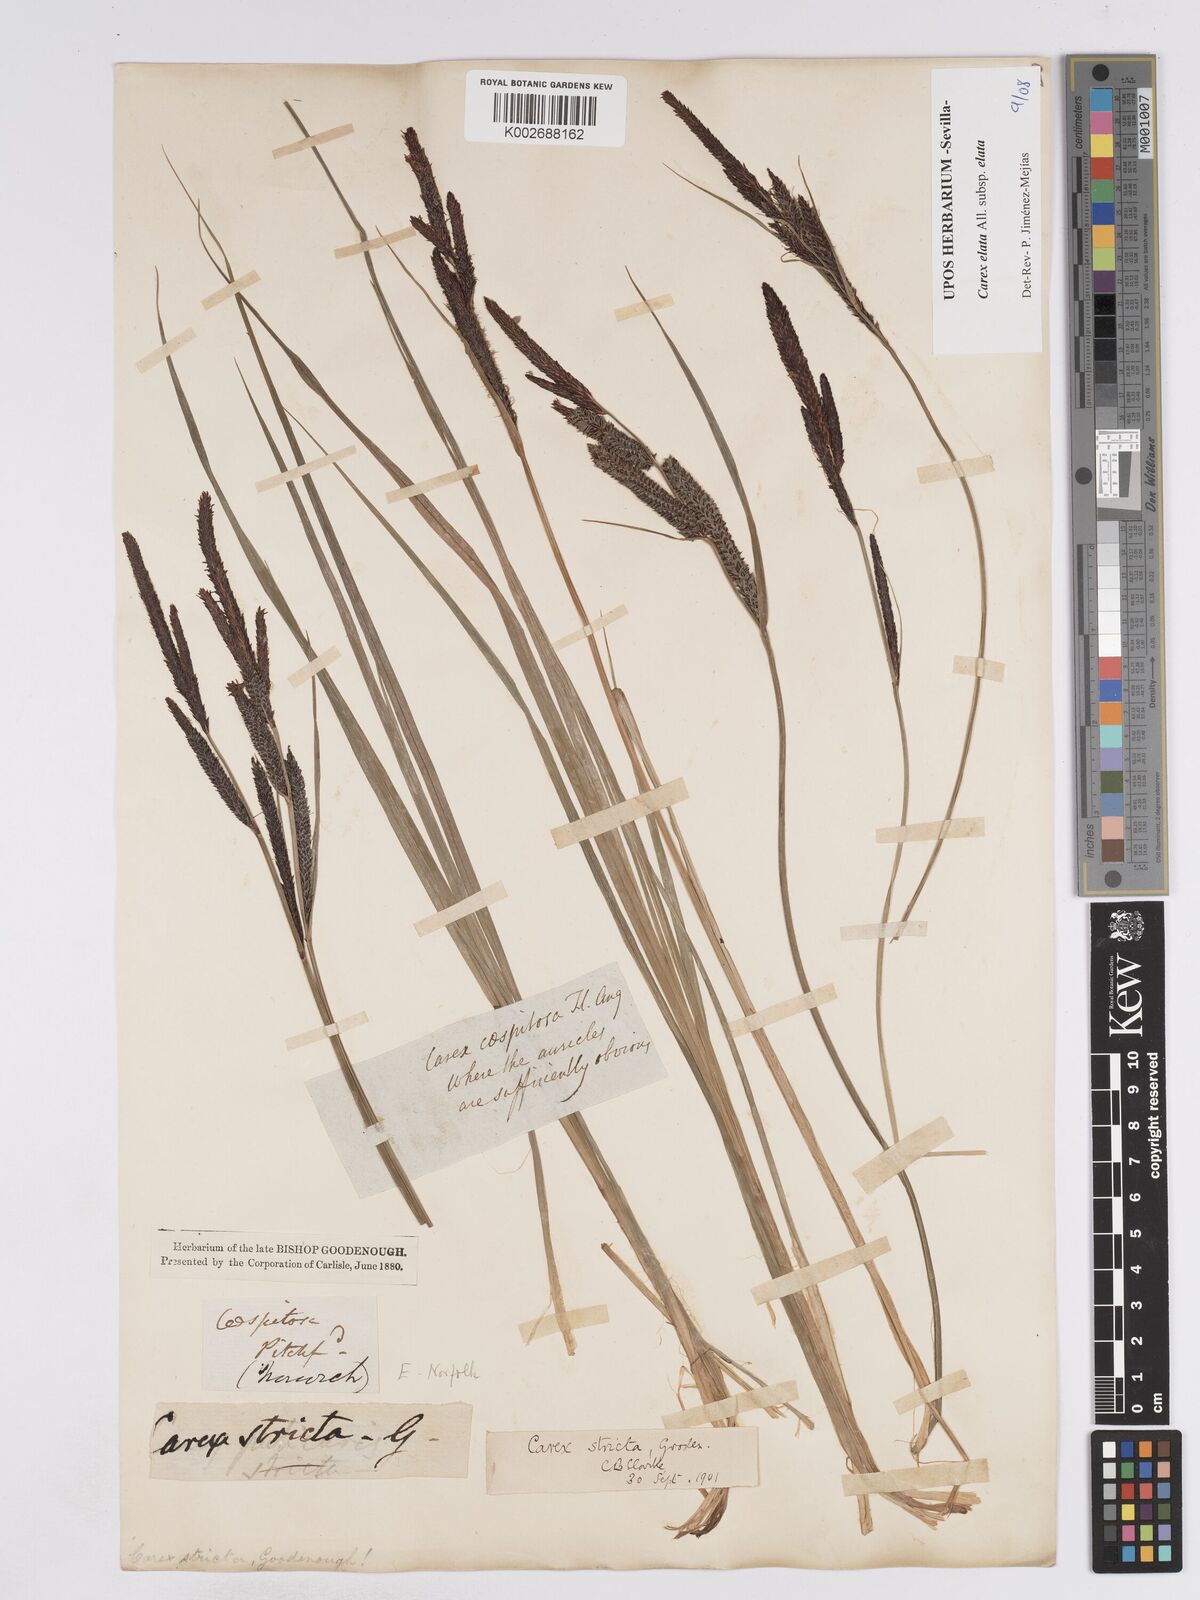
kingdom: Plantae
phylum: Tracheophyta
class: Liliopsida
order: Poales
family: Cyperaceae
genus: Carex
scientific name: Carex elata
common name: Tufted sedge
